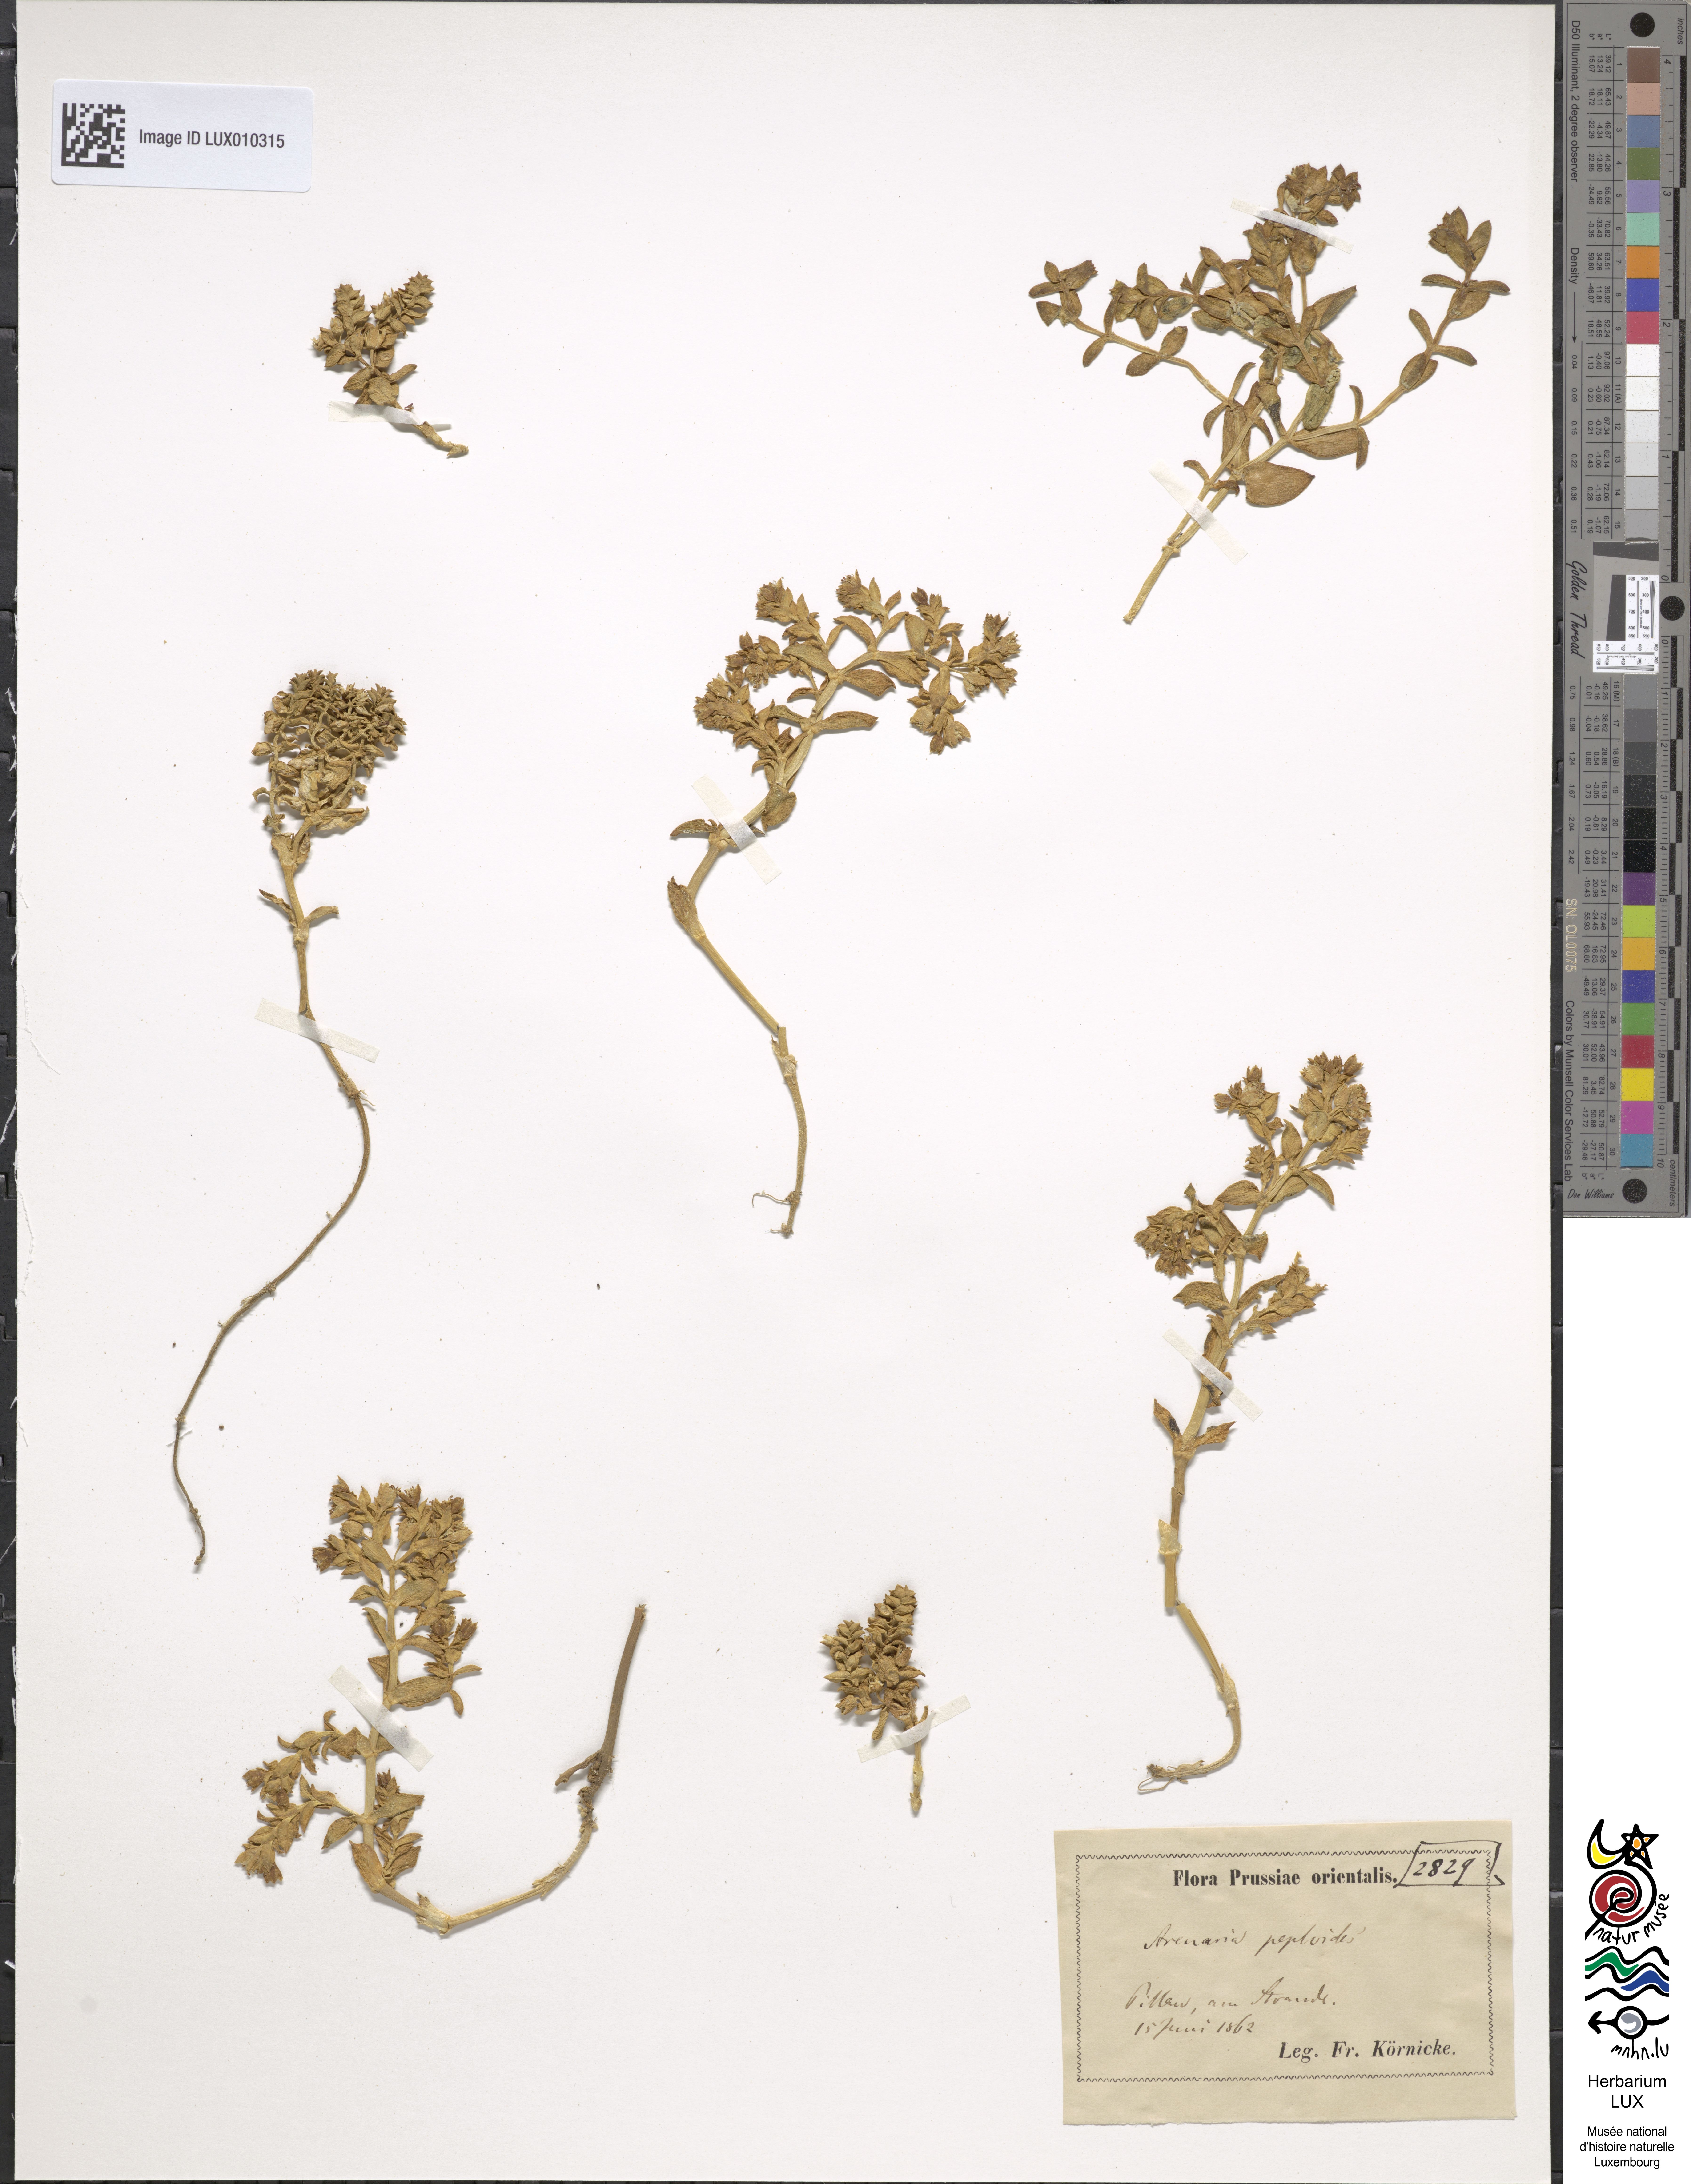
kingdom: Plantae
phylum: Tracheophyta
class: Magnoliopsida
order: Caryophyllales
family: Caryophyllaceae
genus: Honckenya
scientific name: Honckenya peploides
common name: Sea sandwort
